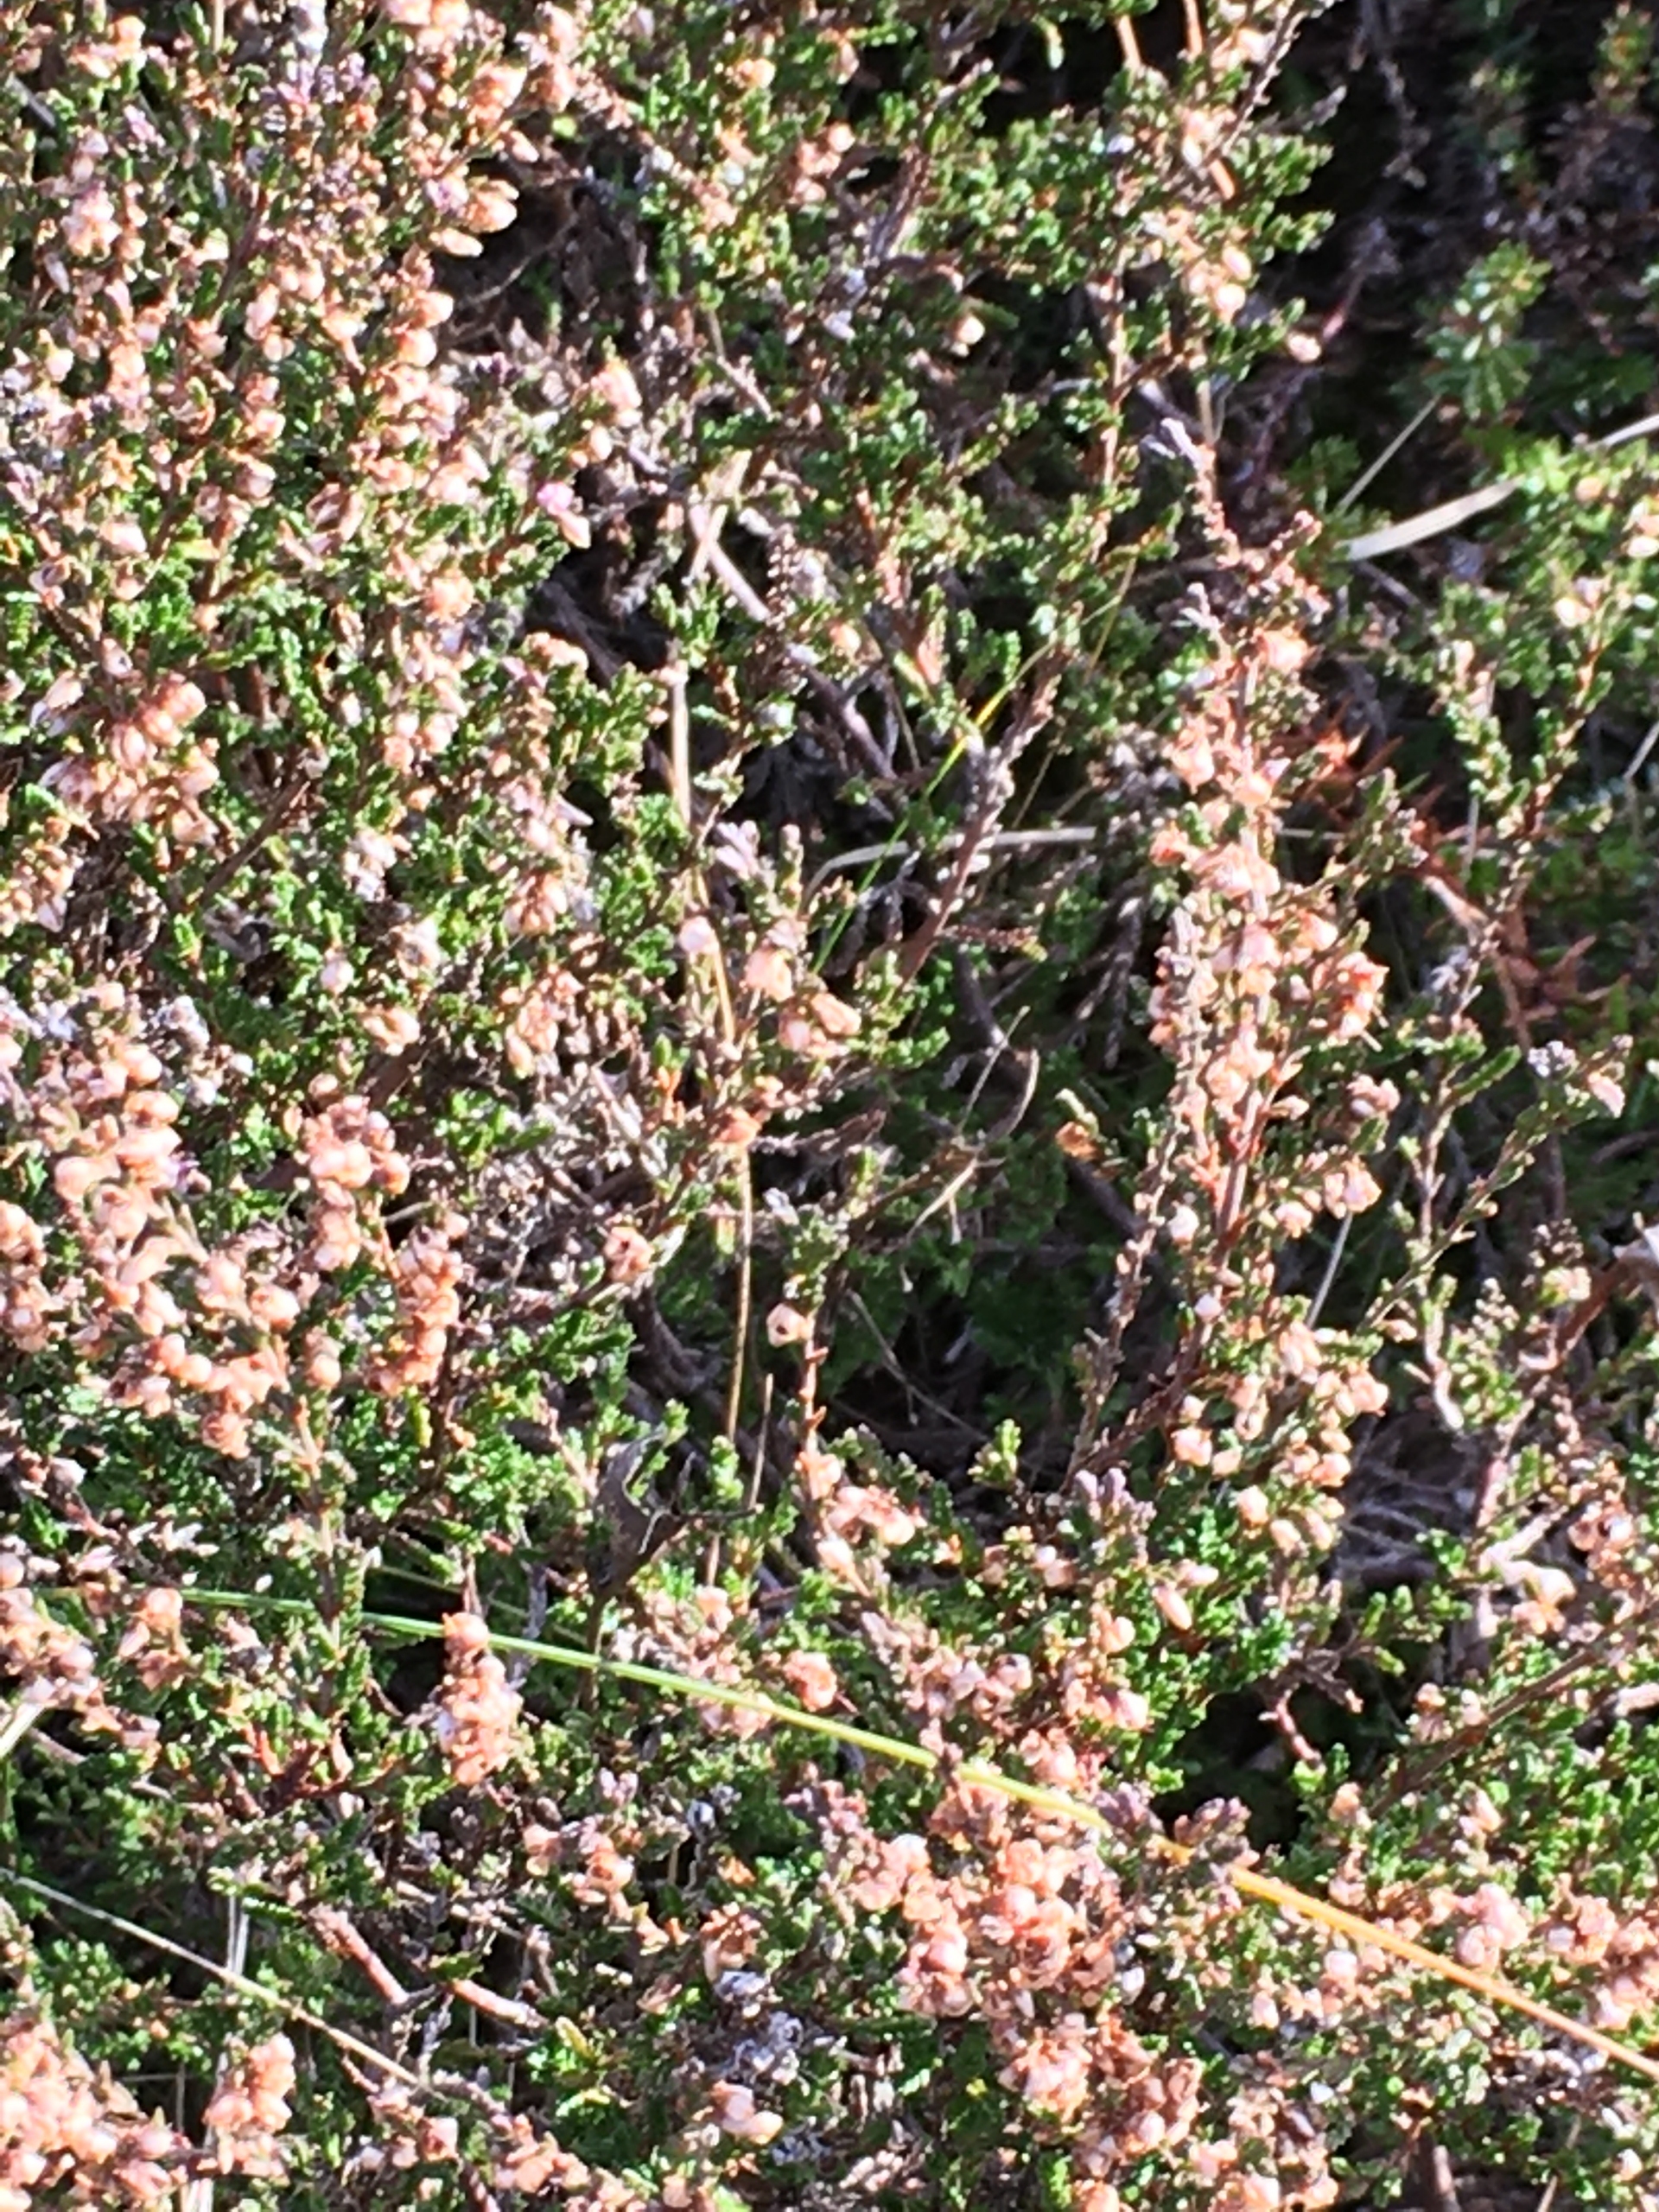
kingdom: Plantae
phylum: Tracheophyta
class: Magnoliopsida
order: Ericales
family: Ericaceae
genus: Calluna
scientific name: Calluna vulgaris
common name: Hedelyng
